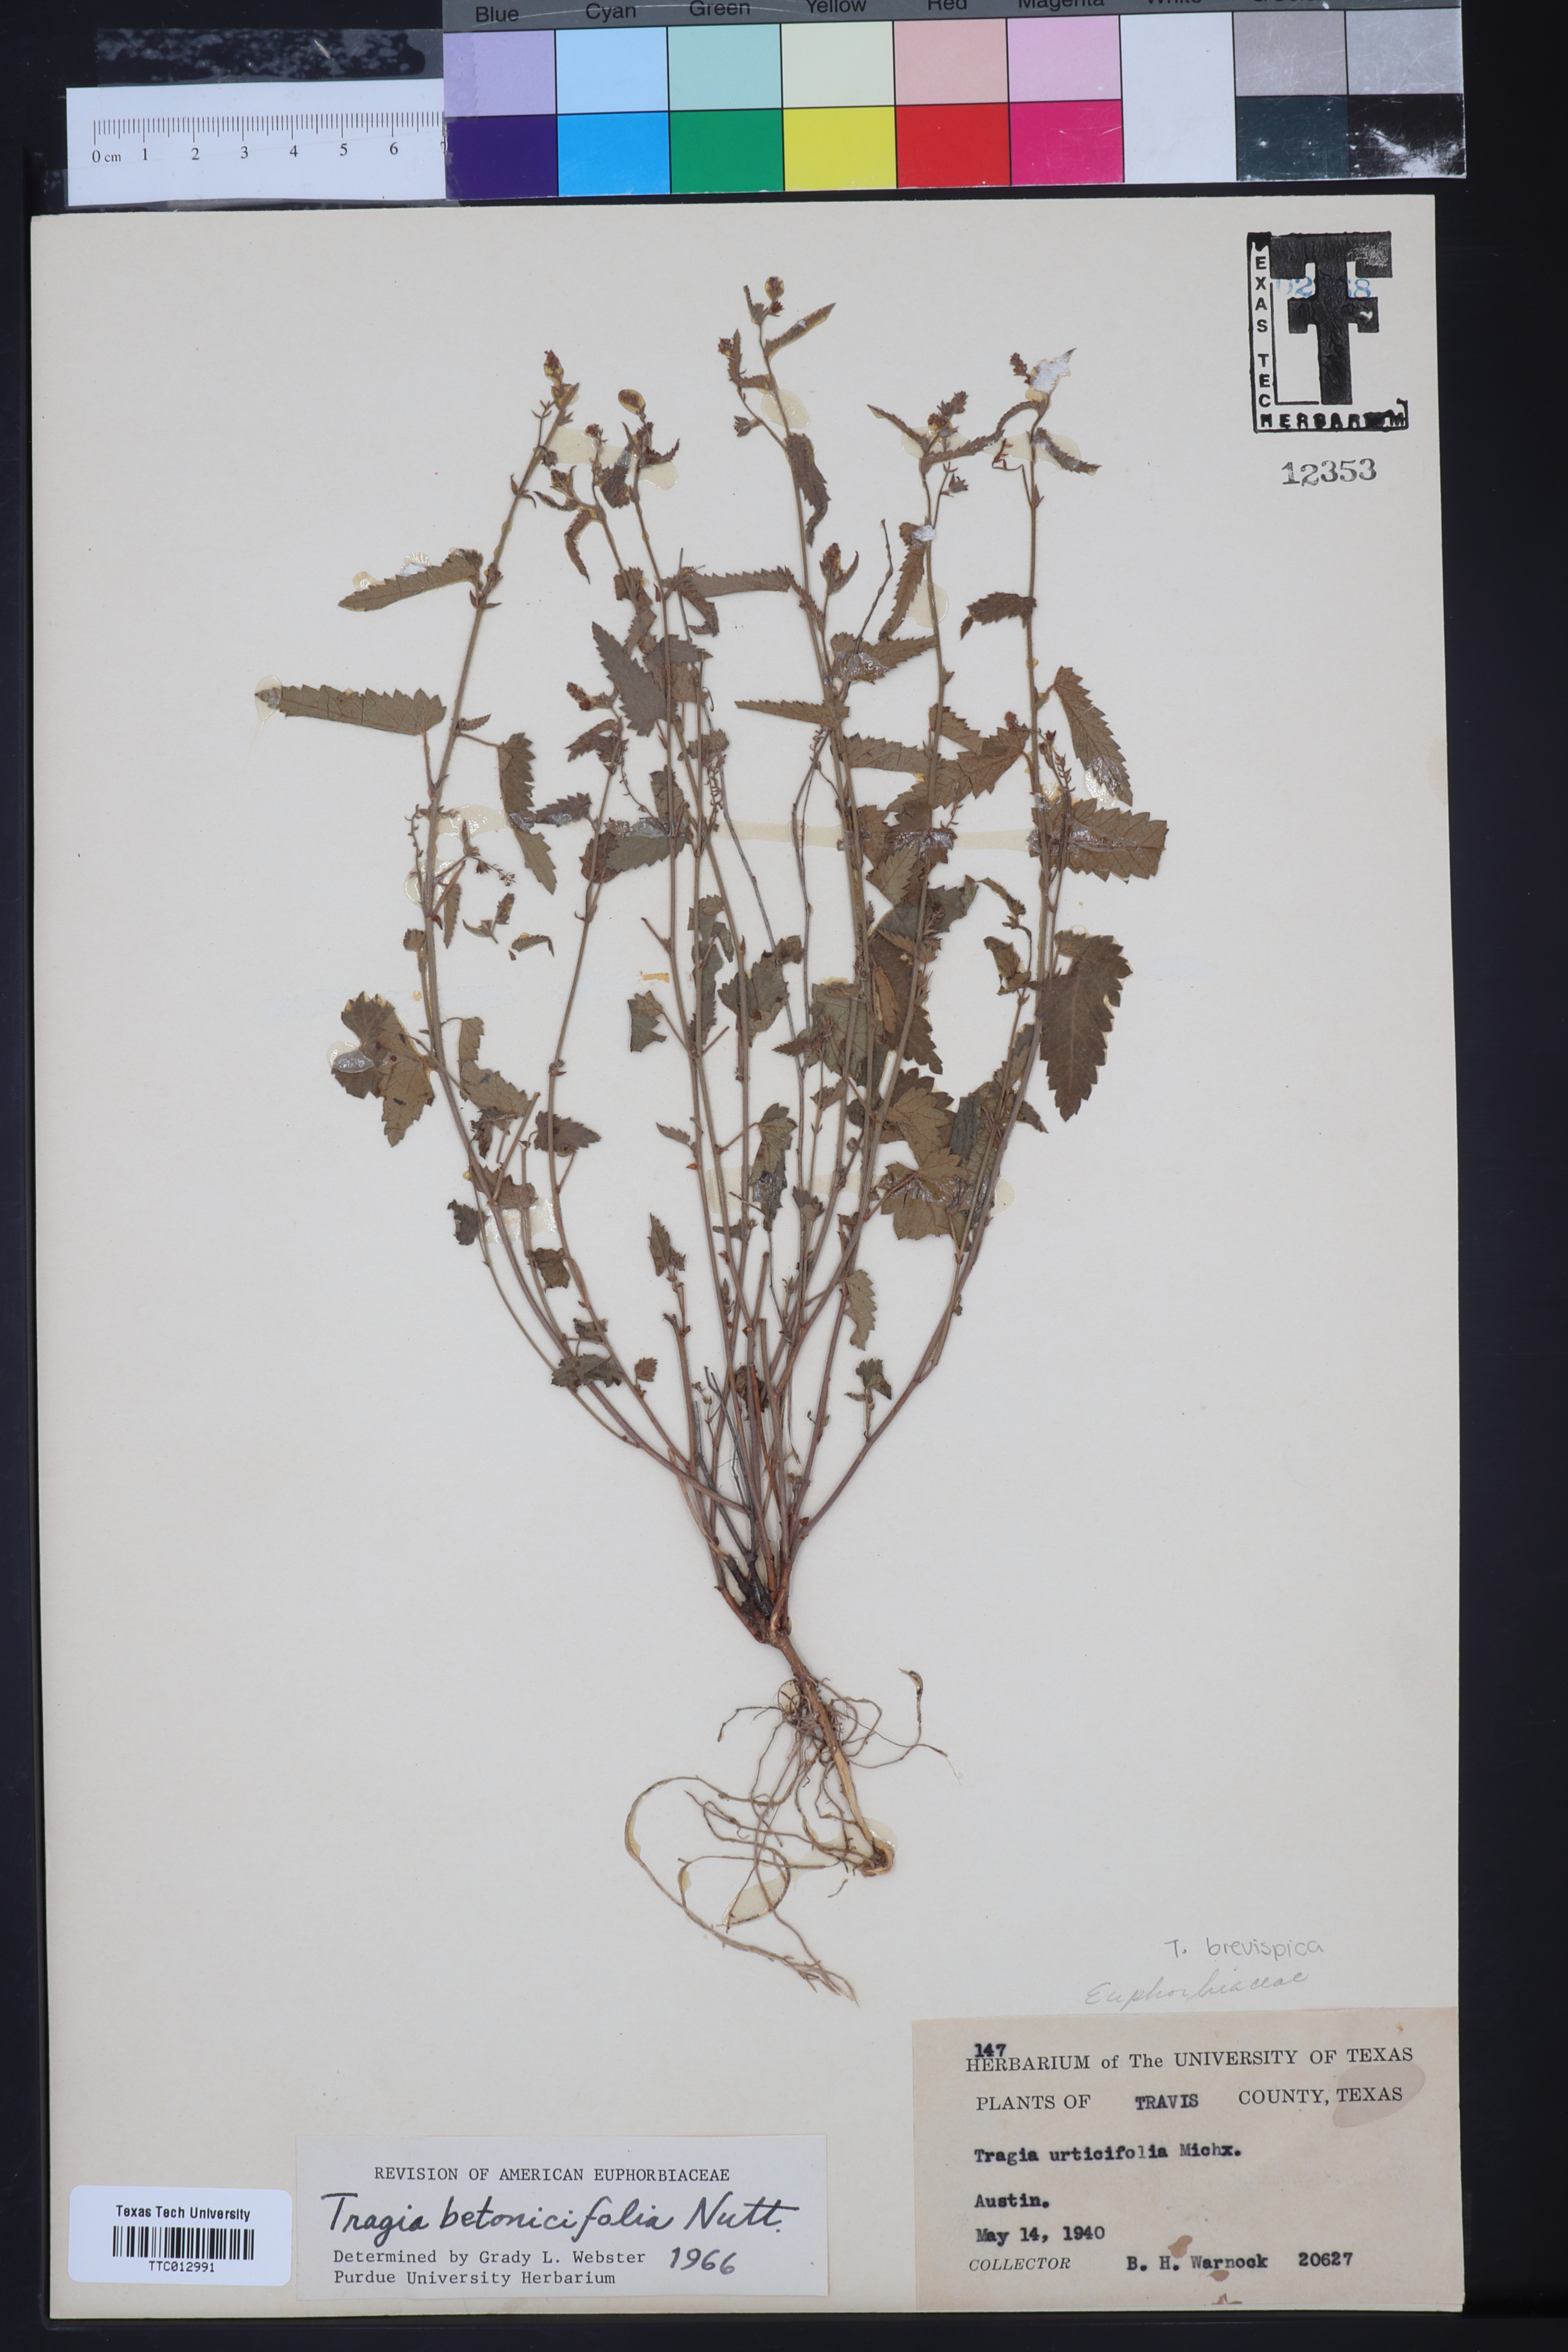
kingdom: Plantae
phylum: Tracheophyta
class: Magnoliopsida
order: Malpighiales
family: Euphorbiaceae
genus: Tragia
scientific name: Tragia betonicifolia
